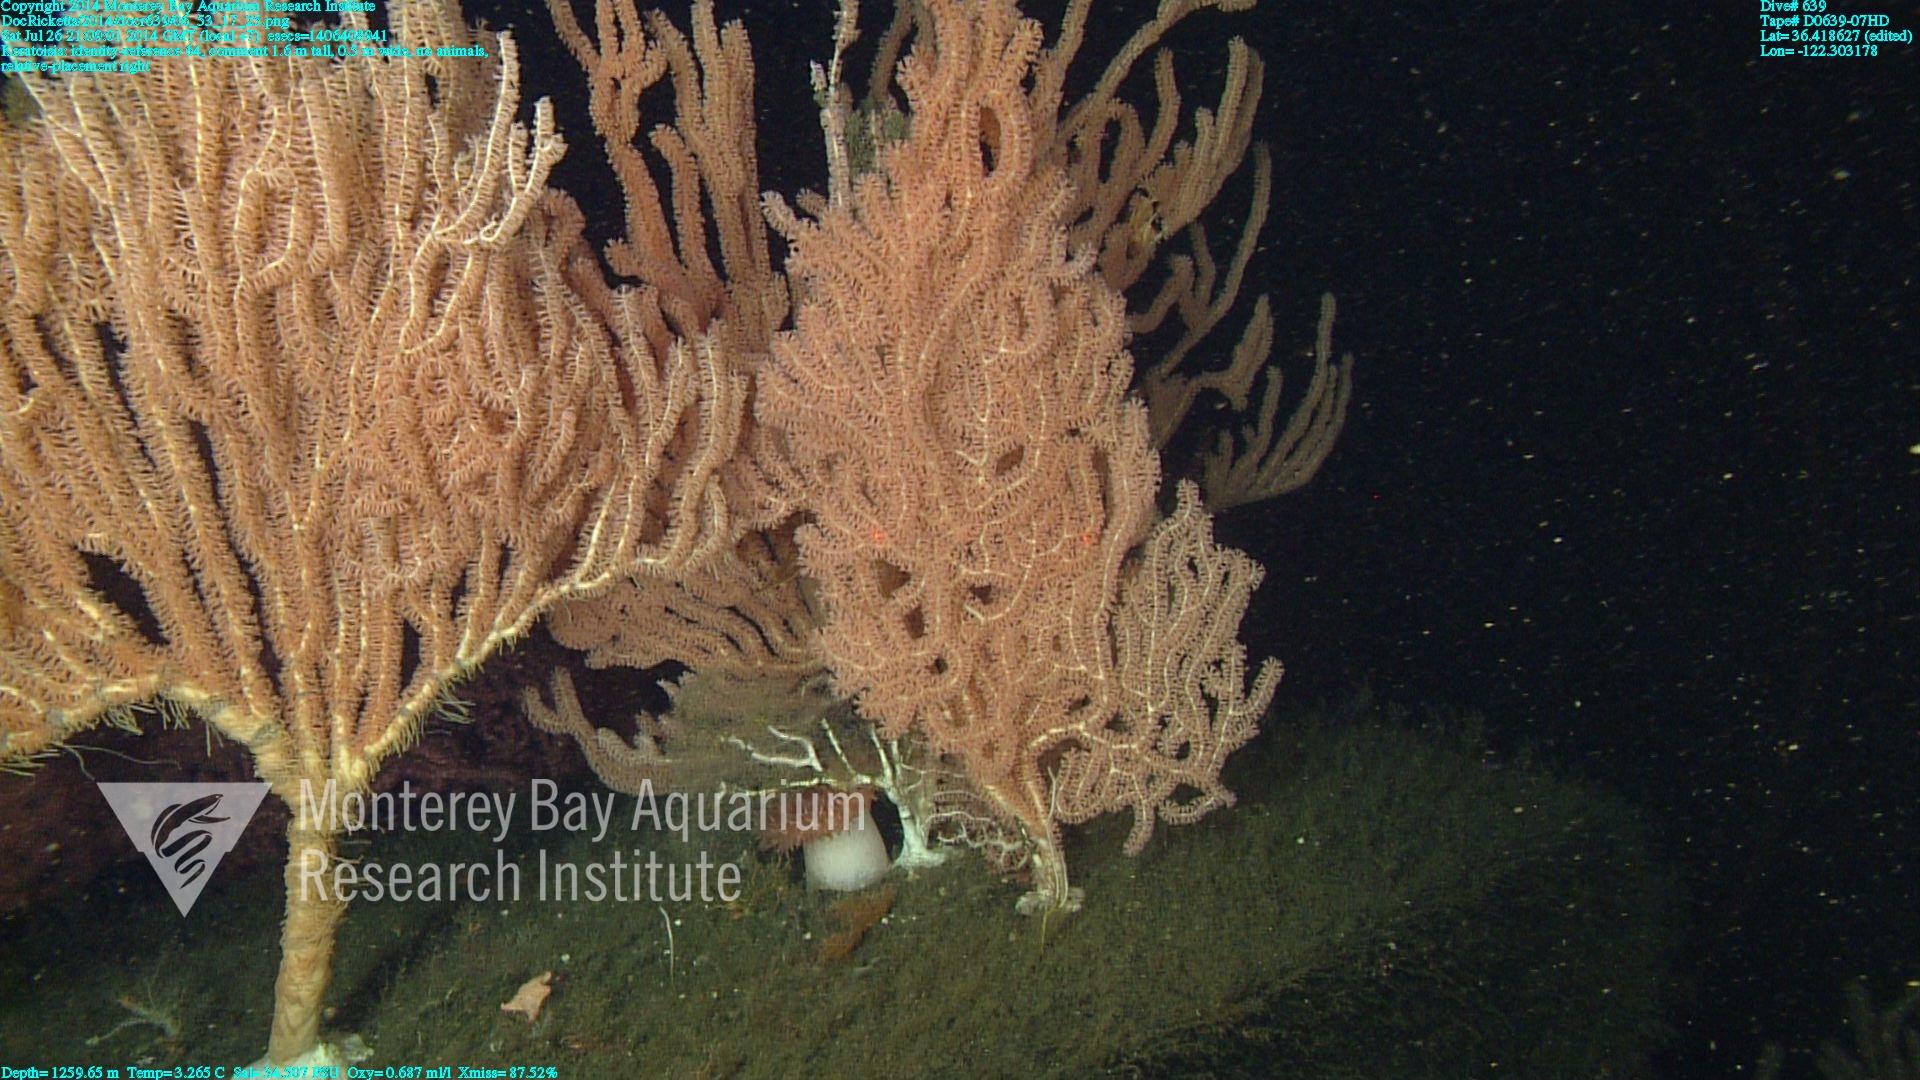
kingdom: Animalia
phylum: Cnidaria
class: Anthozoa
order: Scleralcyonacea
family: Keratoisididae
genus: Keratoisis
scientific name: Keratoisis
